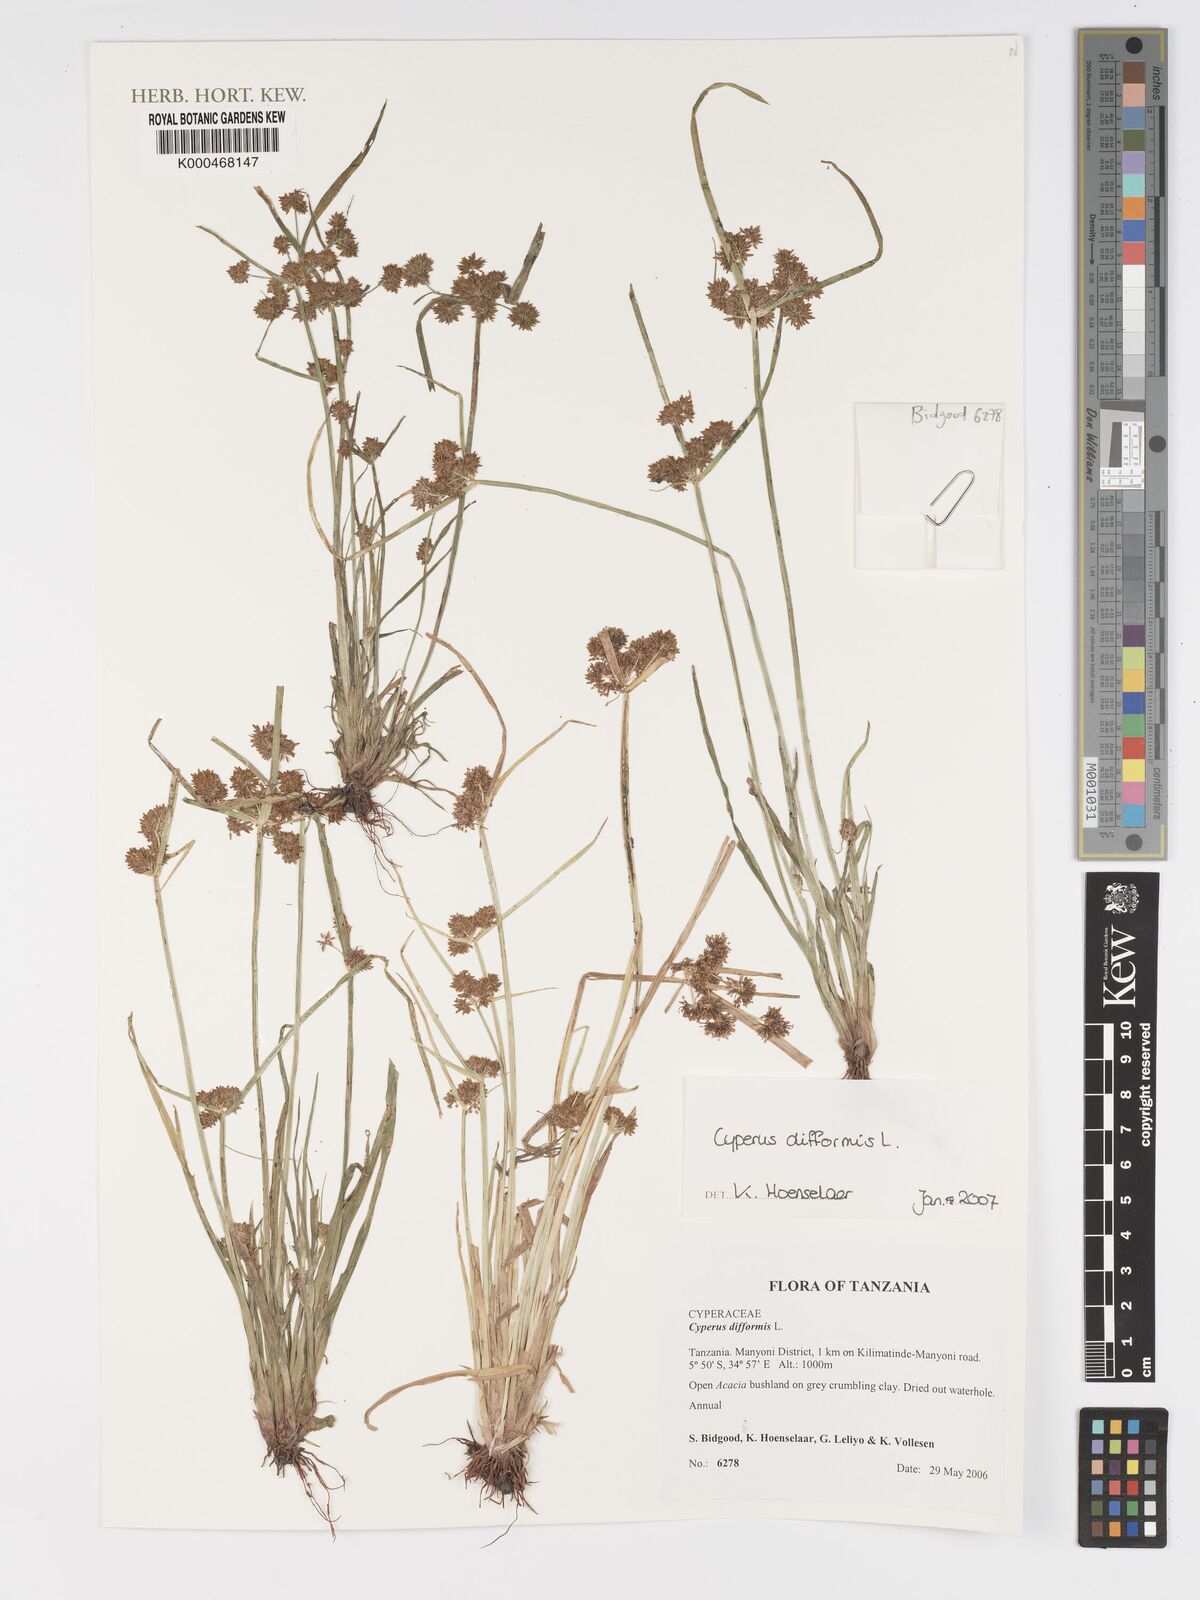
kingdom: Plantae
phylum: Tracheophyta
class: Liliopsida
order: Poales
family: Cyperaceae
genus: Cyperus
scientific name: Cyperus difformis
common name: Variable flatsedge
